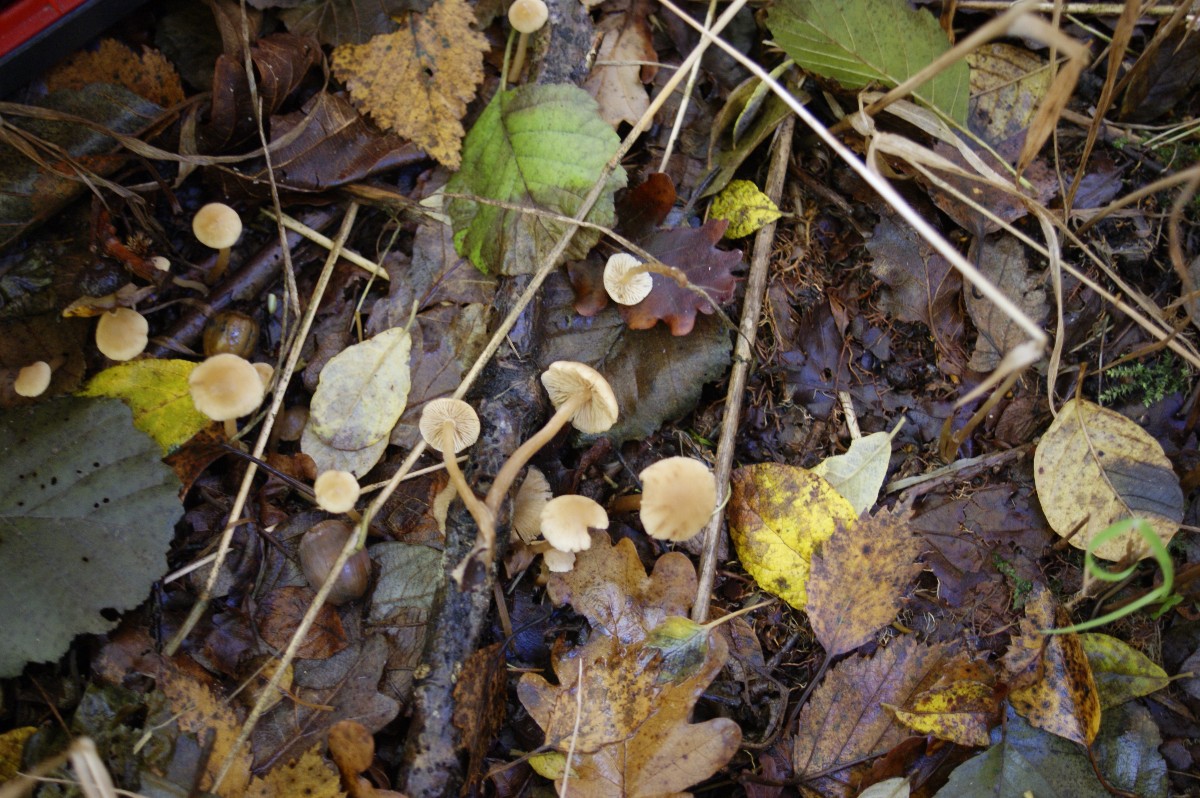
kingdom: Fungi
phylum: Basidiomycota
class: Agaricomycetes
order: Agaricales
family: Hymenogastraceae
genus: Naucoria
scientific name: Naucoria escharioides
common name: lys elle-knaphat
